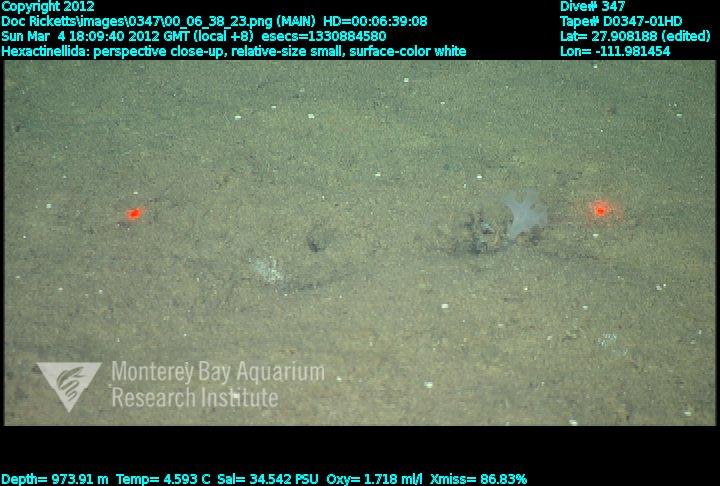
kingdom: Animalia
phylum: Porifera
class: Hexactinellida
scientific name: Hexactinellida
